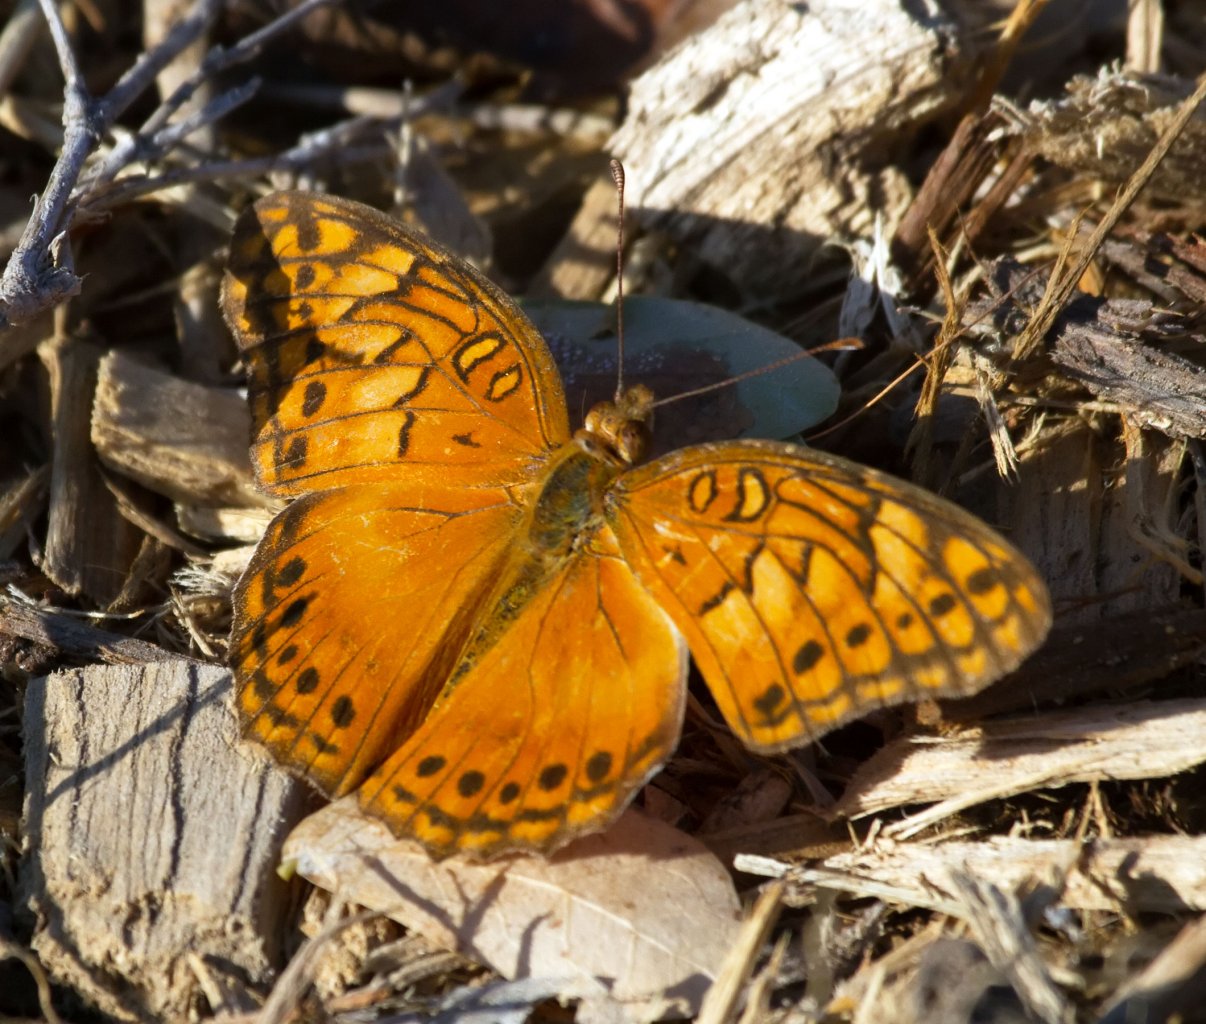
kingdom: Animalia
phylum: Arthropoda
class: Insecta
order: Lepidoptera
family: Nymphalidae
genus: Euptoieta
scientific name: Euptoieta hegesia
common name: Mexican Fritillary
